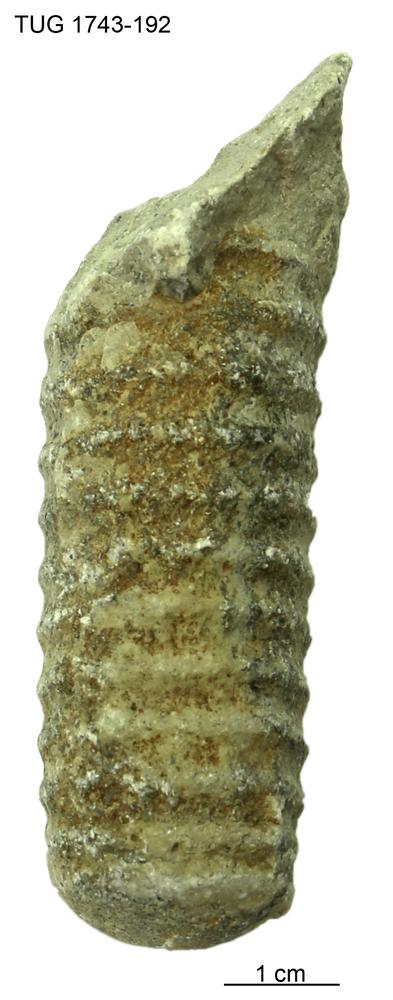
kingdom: Animalia
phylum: Mollusca
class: Cephalopoda
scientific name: Cephalopoda
